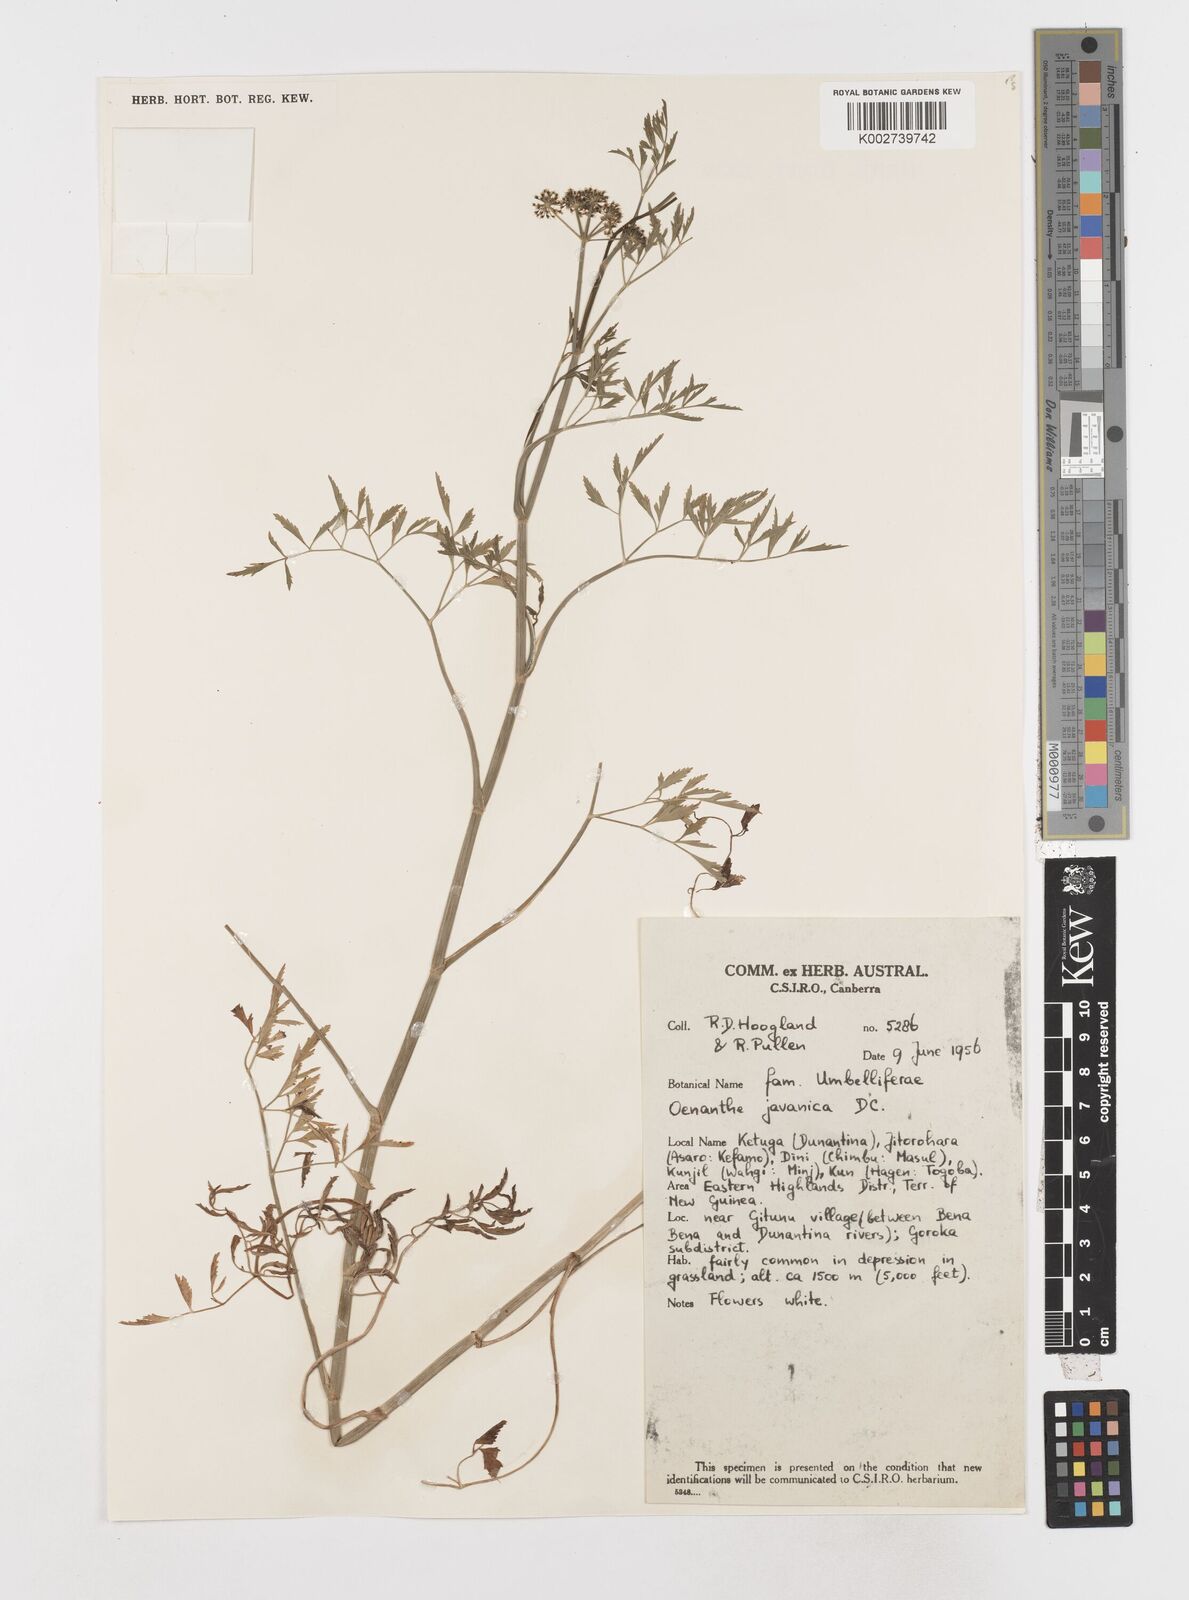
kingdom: Plantae
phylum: Tracheophyta
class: Magnoliopsida
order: Apiales
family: Apiaceae
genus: Oenanthe
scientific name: Oenanthe javanica
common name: Java water-dropwort
